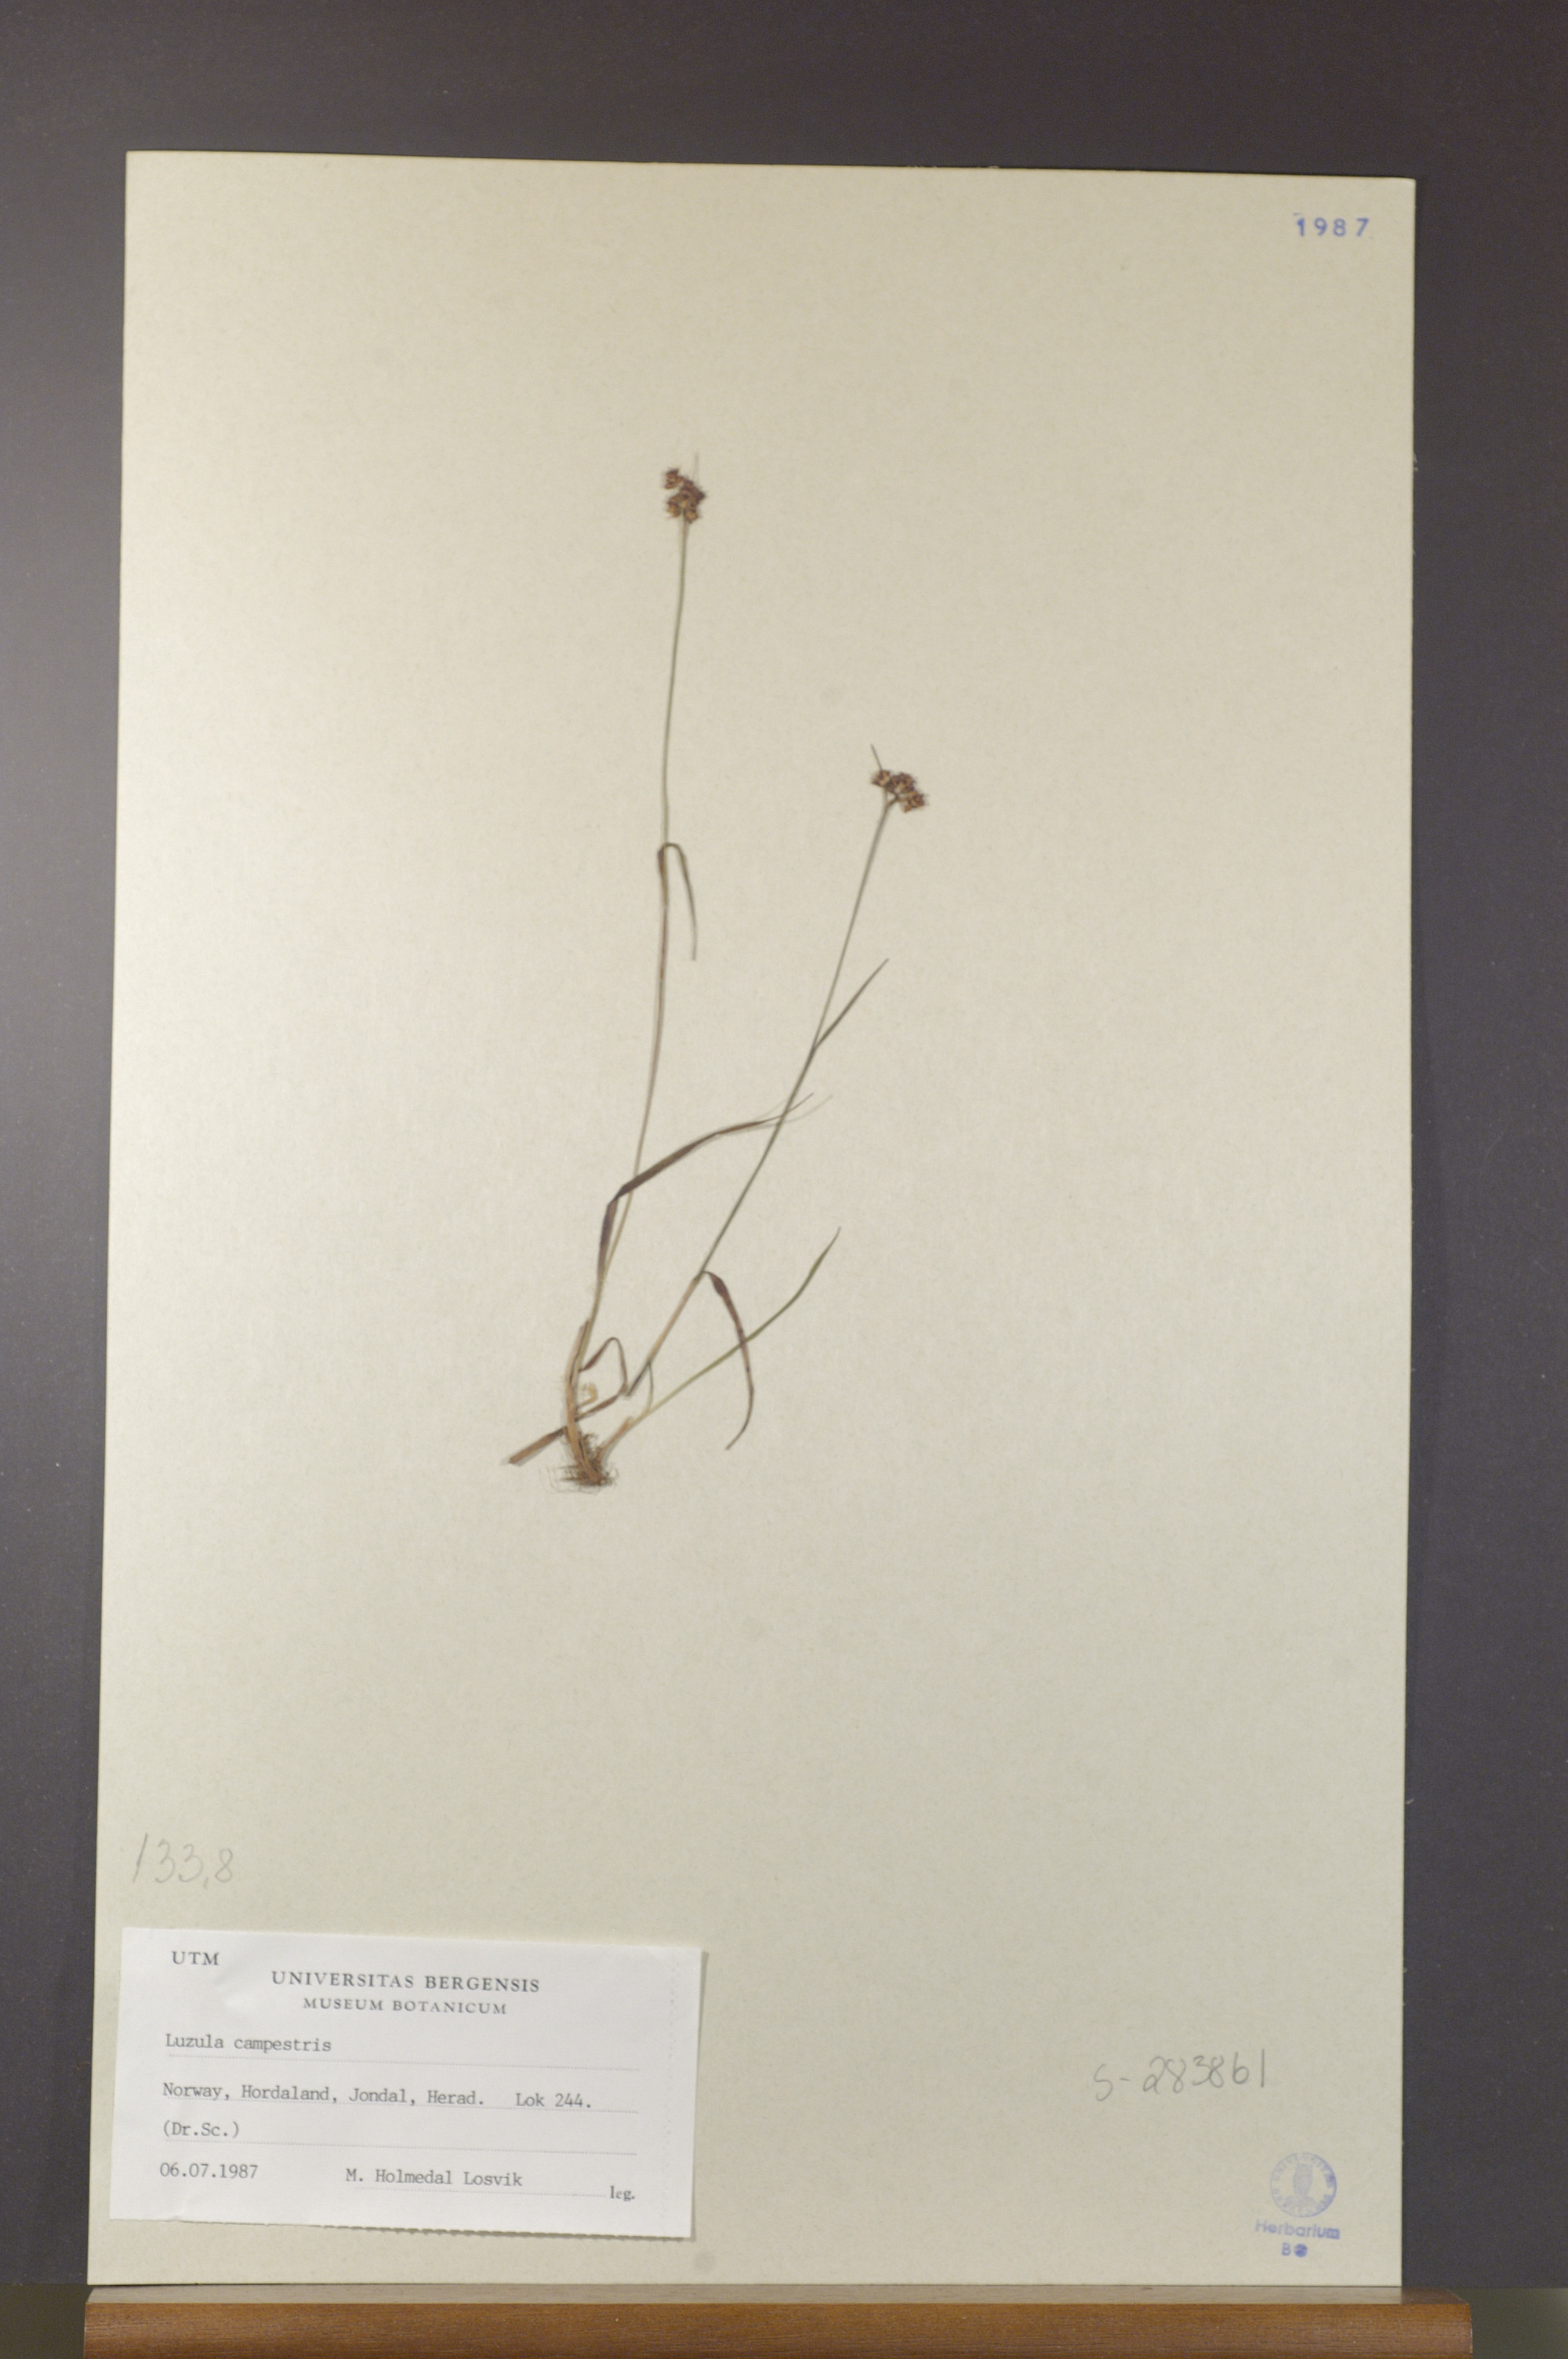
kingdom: Plantae
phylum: Tracheophyta
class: Liliopsida
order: Poales
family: Juncaceae
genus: Luzula
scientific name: Luzula campestris
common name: Field wood-rush
